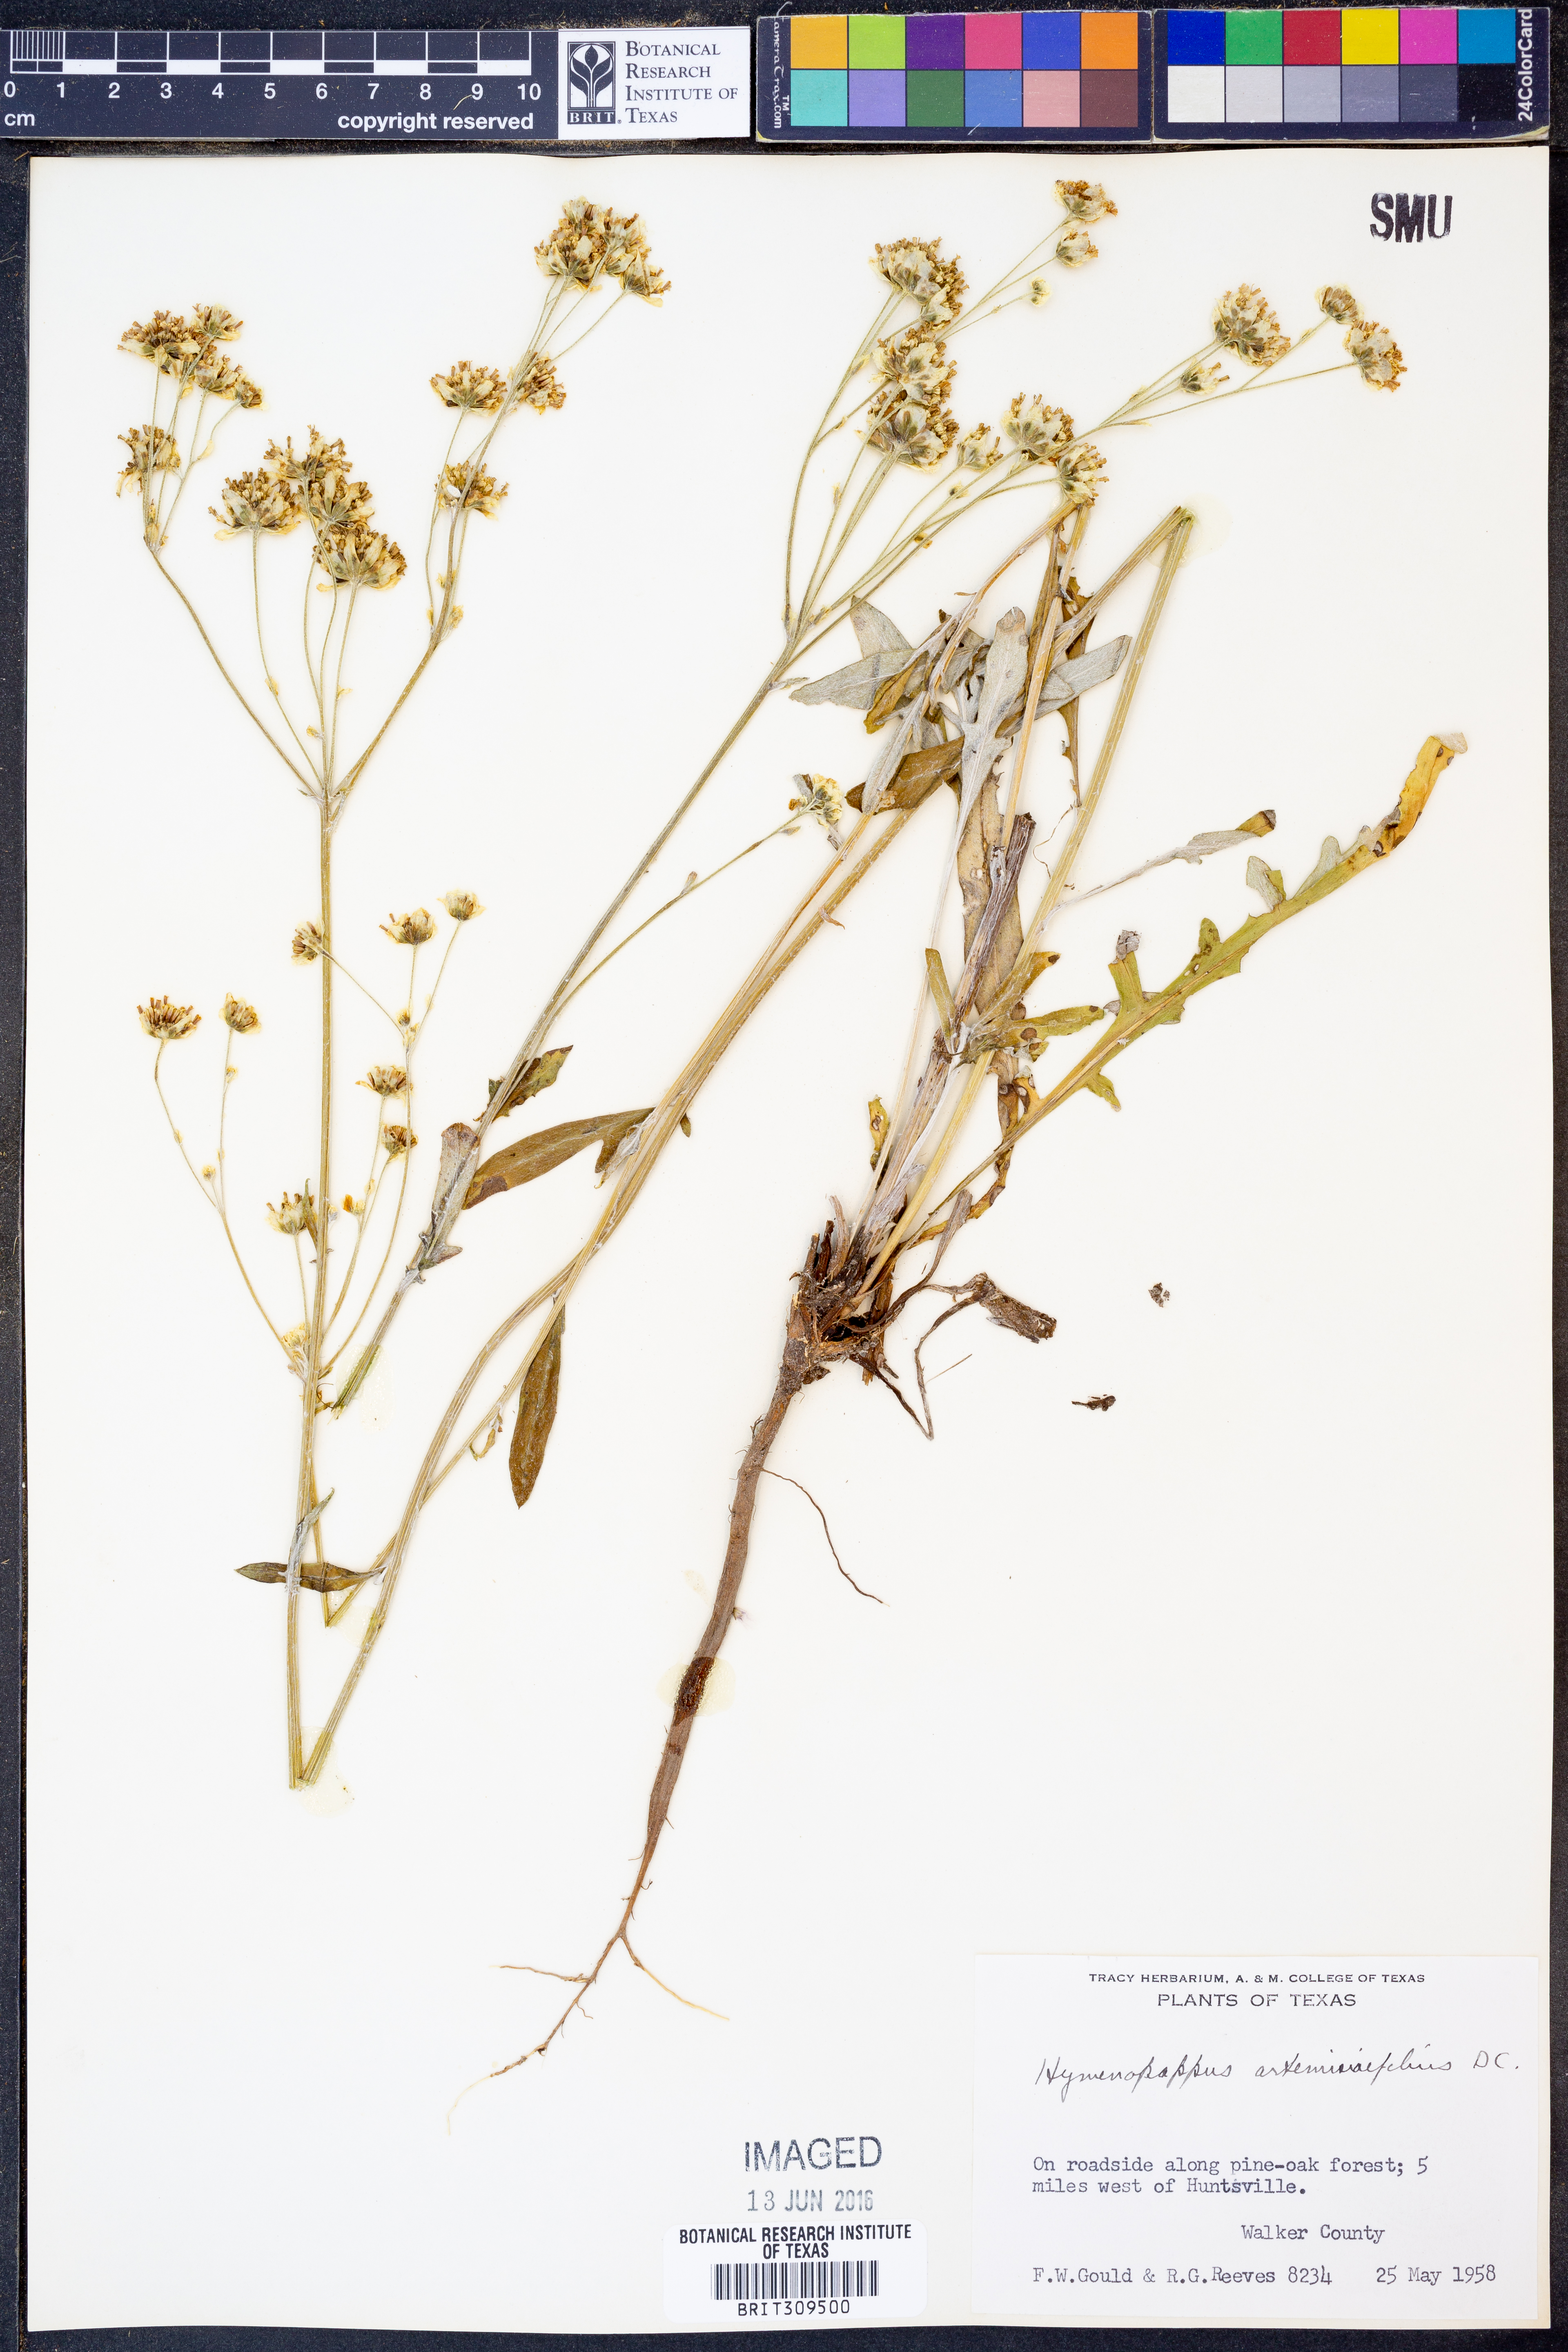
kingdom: Plantae
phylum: Tracheophyta
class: Magnoliopsida
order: Asterales
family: Asteraceae
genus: Hymenopappus
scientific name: Hymenopappus artemisiifolius
